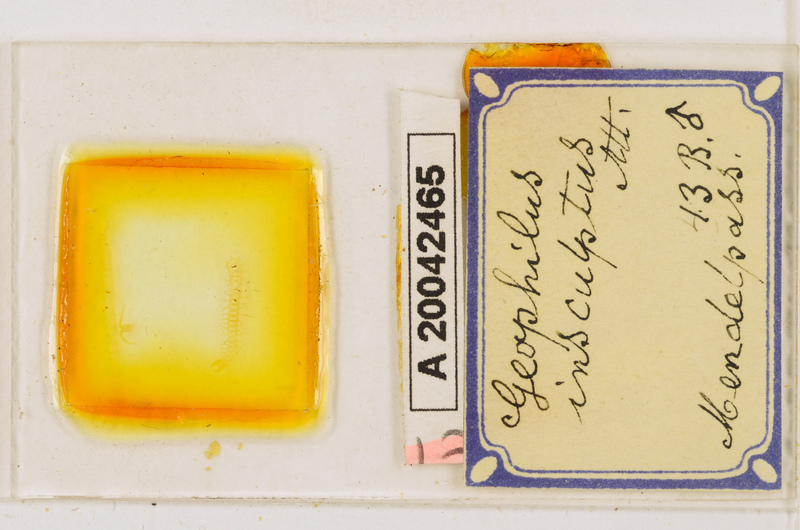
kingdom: Animalia
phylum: Arthropoda
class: Chilopoda
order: Geophilomorpha
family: Geophilidae
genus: Geophilus
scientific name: Geophilus insculptus
